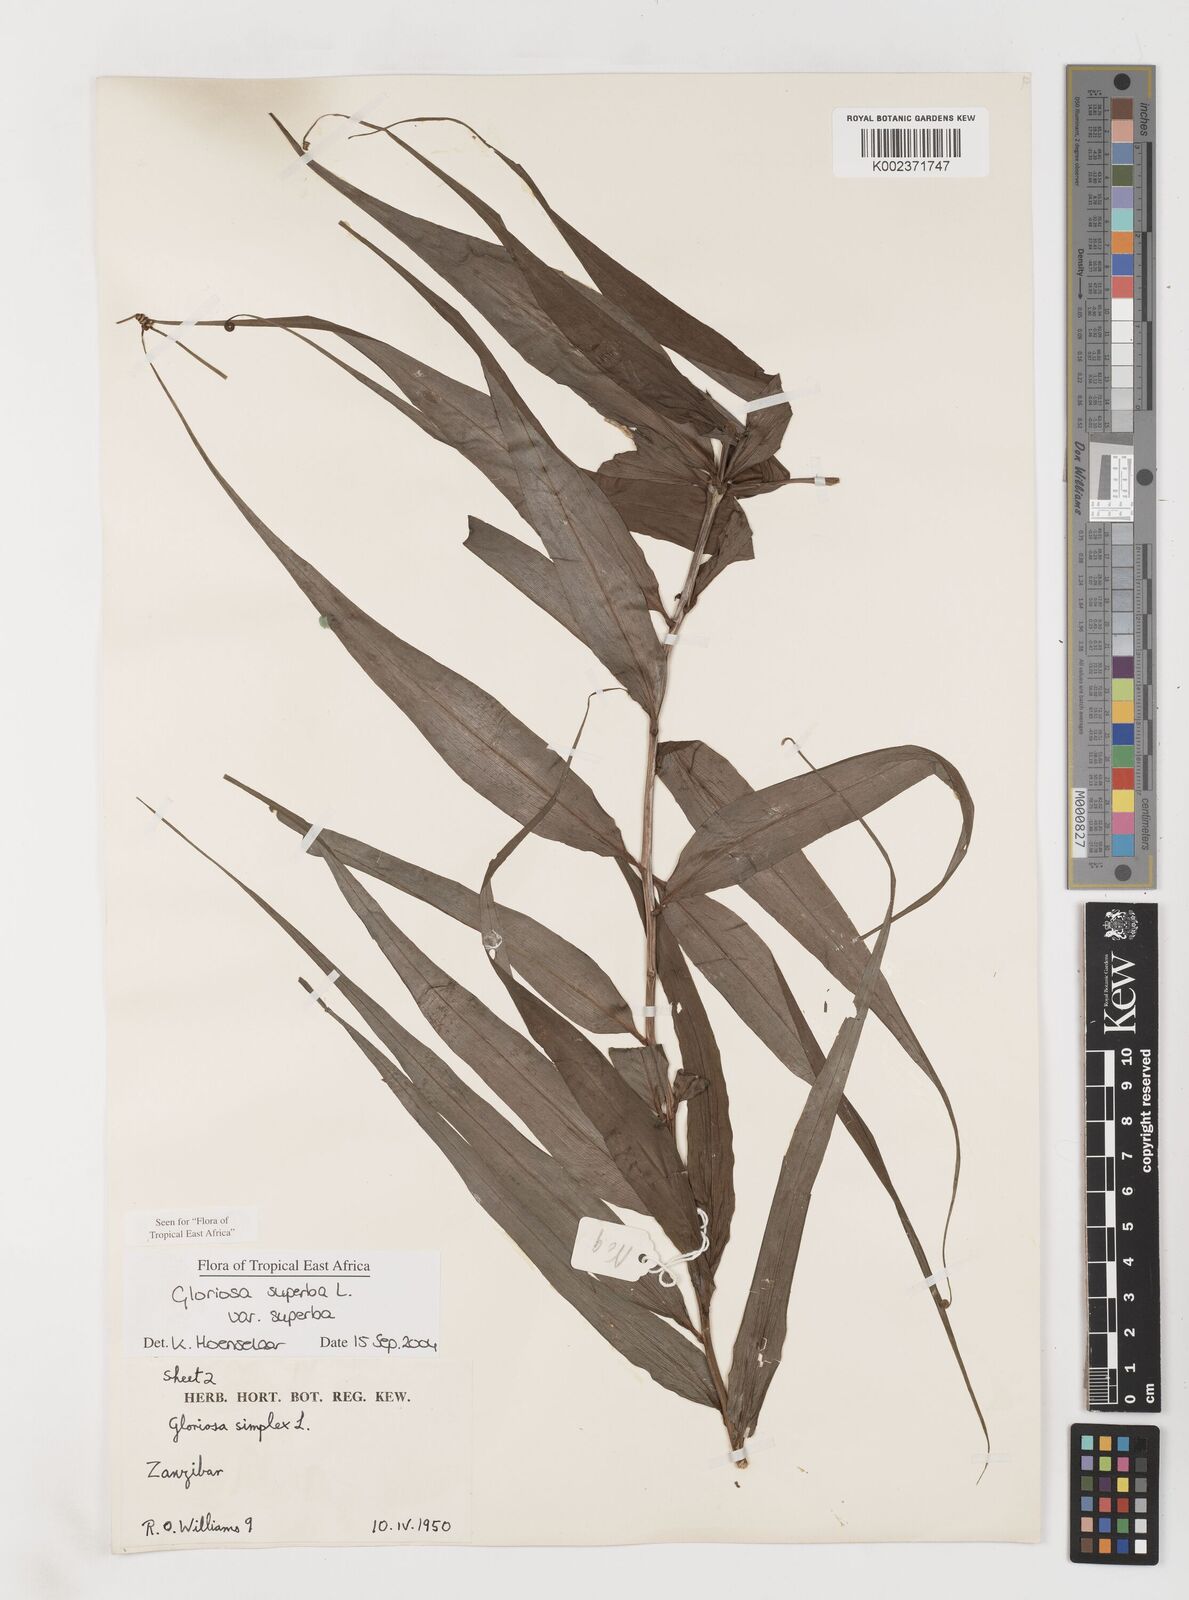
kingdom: Plantae
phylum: Tracheophyta
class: Liliopsida
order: Liliales
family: Colchicaceae
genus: Gloriosa
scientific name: Gloriosa simplex
